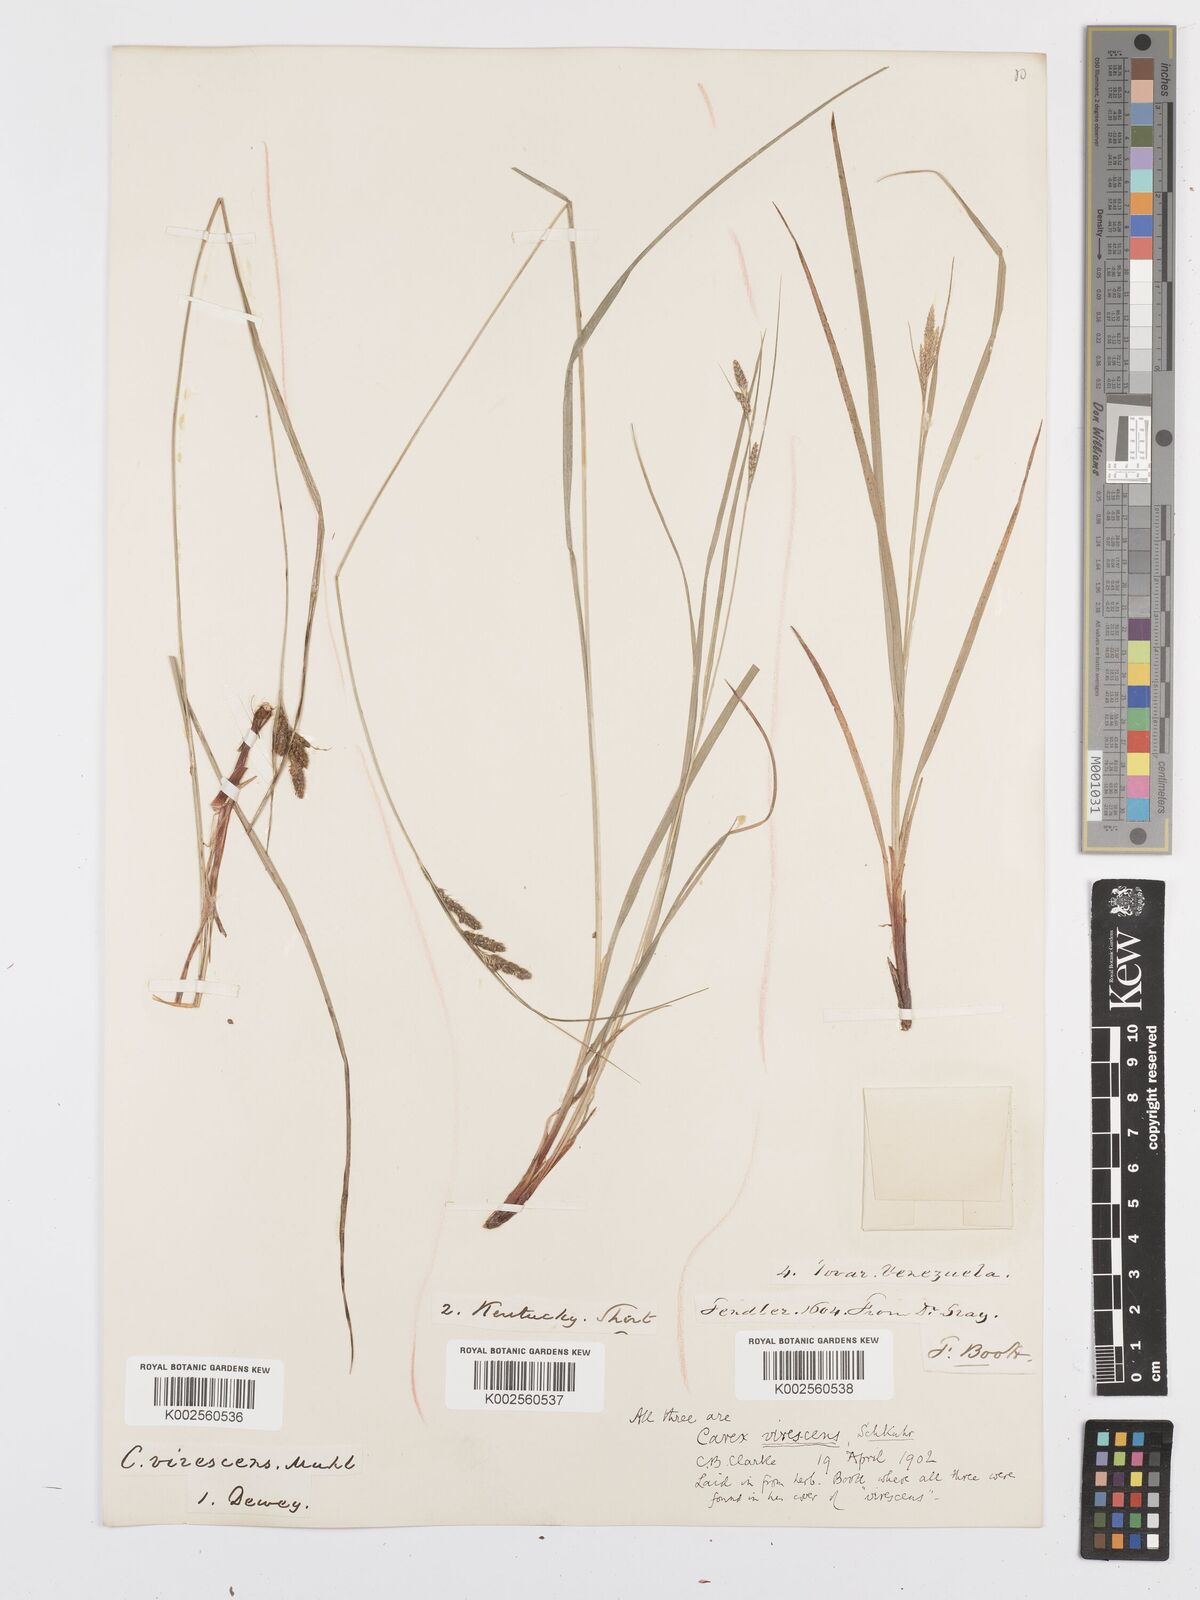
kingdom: Plantae
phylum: Tracheophyta
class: Liliopsida
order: Poales
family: Cyperaceae
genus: Carex
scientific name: Carex virescens
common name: Ribbed sedge
